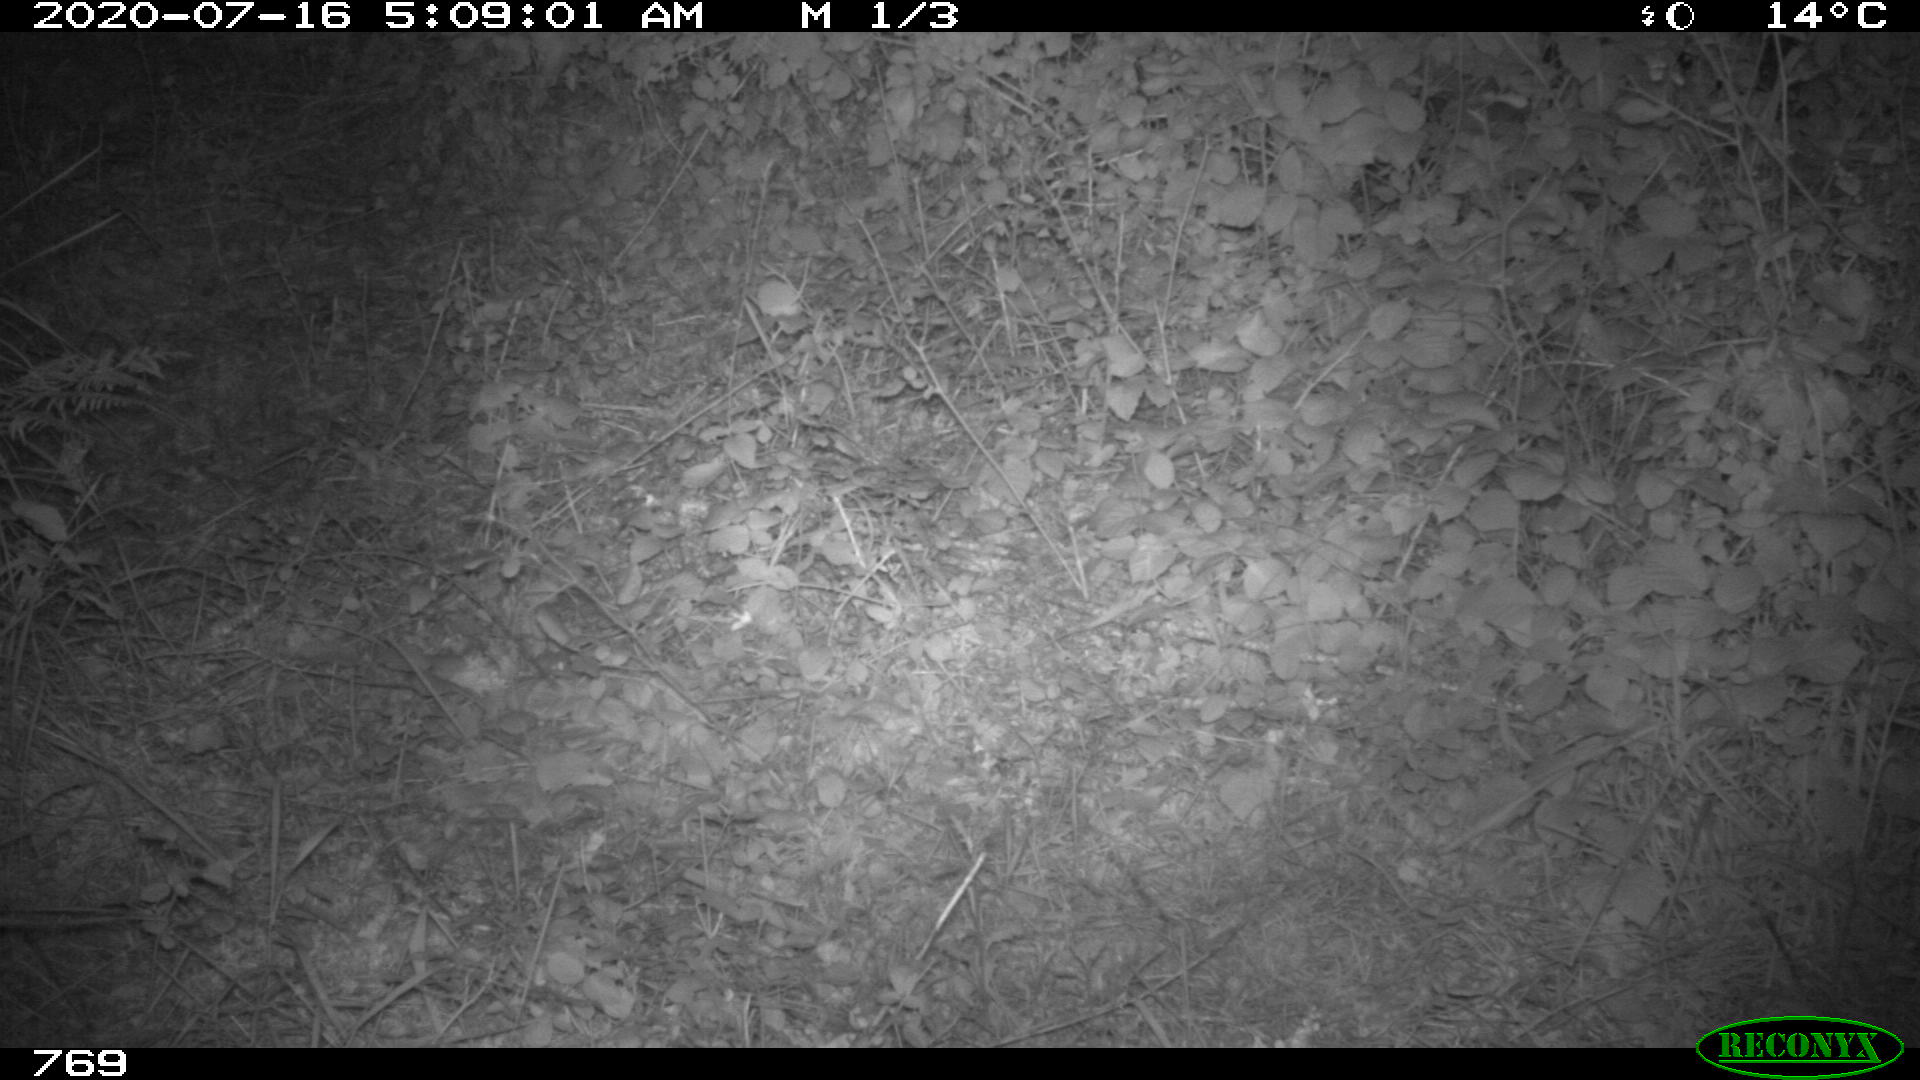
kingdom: Animalia
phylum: Chordata
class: Mammalia
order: Artiodactyla
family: Cervidae
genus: Capreolus
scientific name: Capreolus capreolus
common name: Western roe deer
